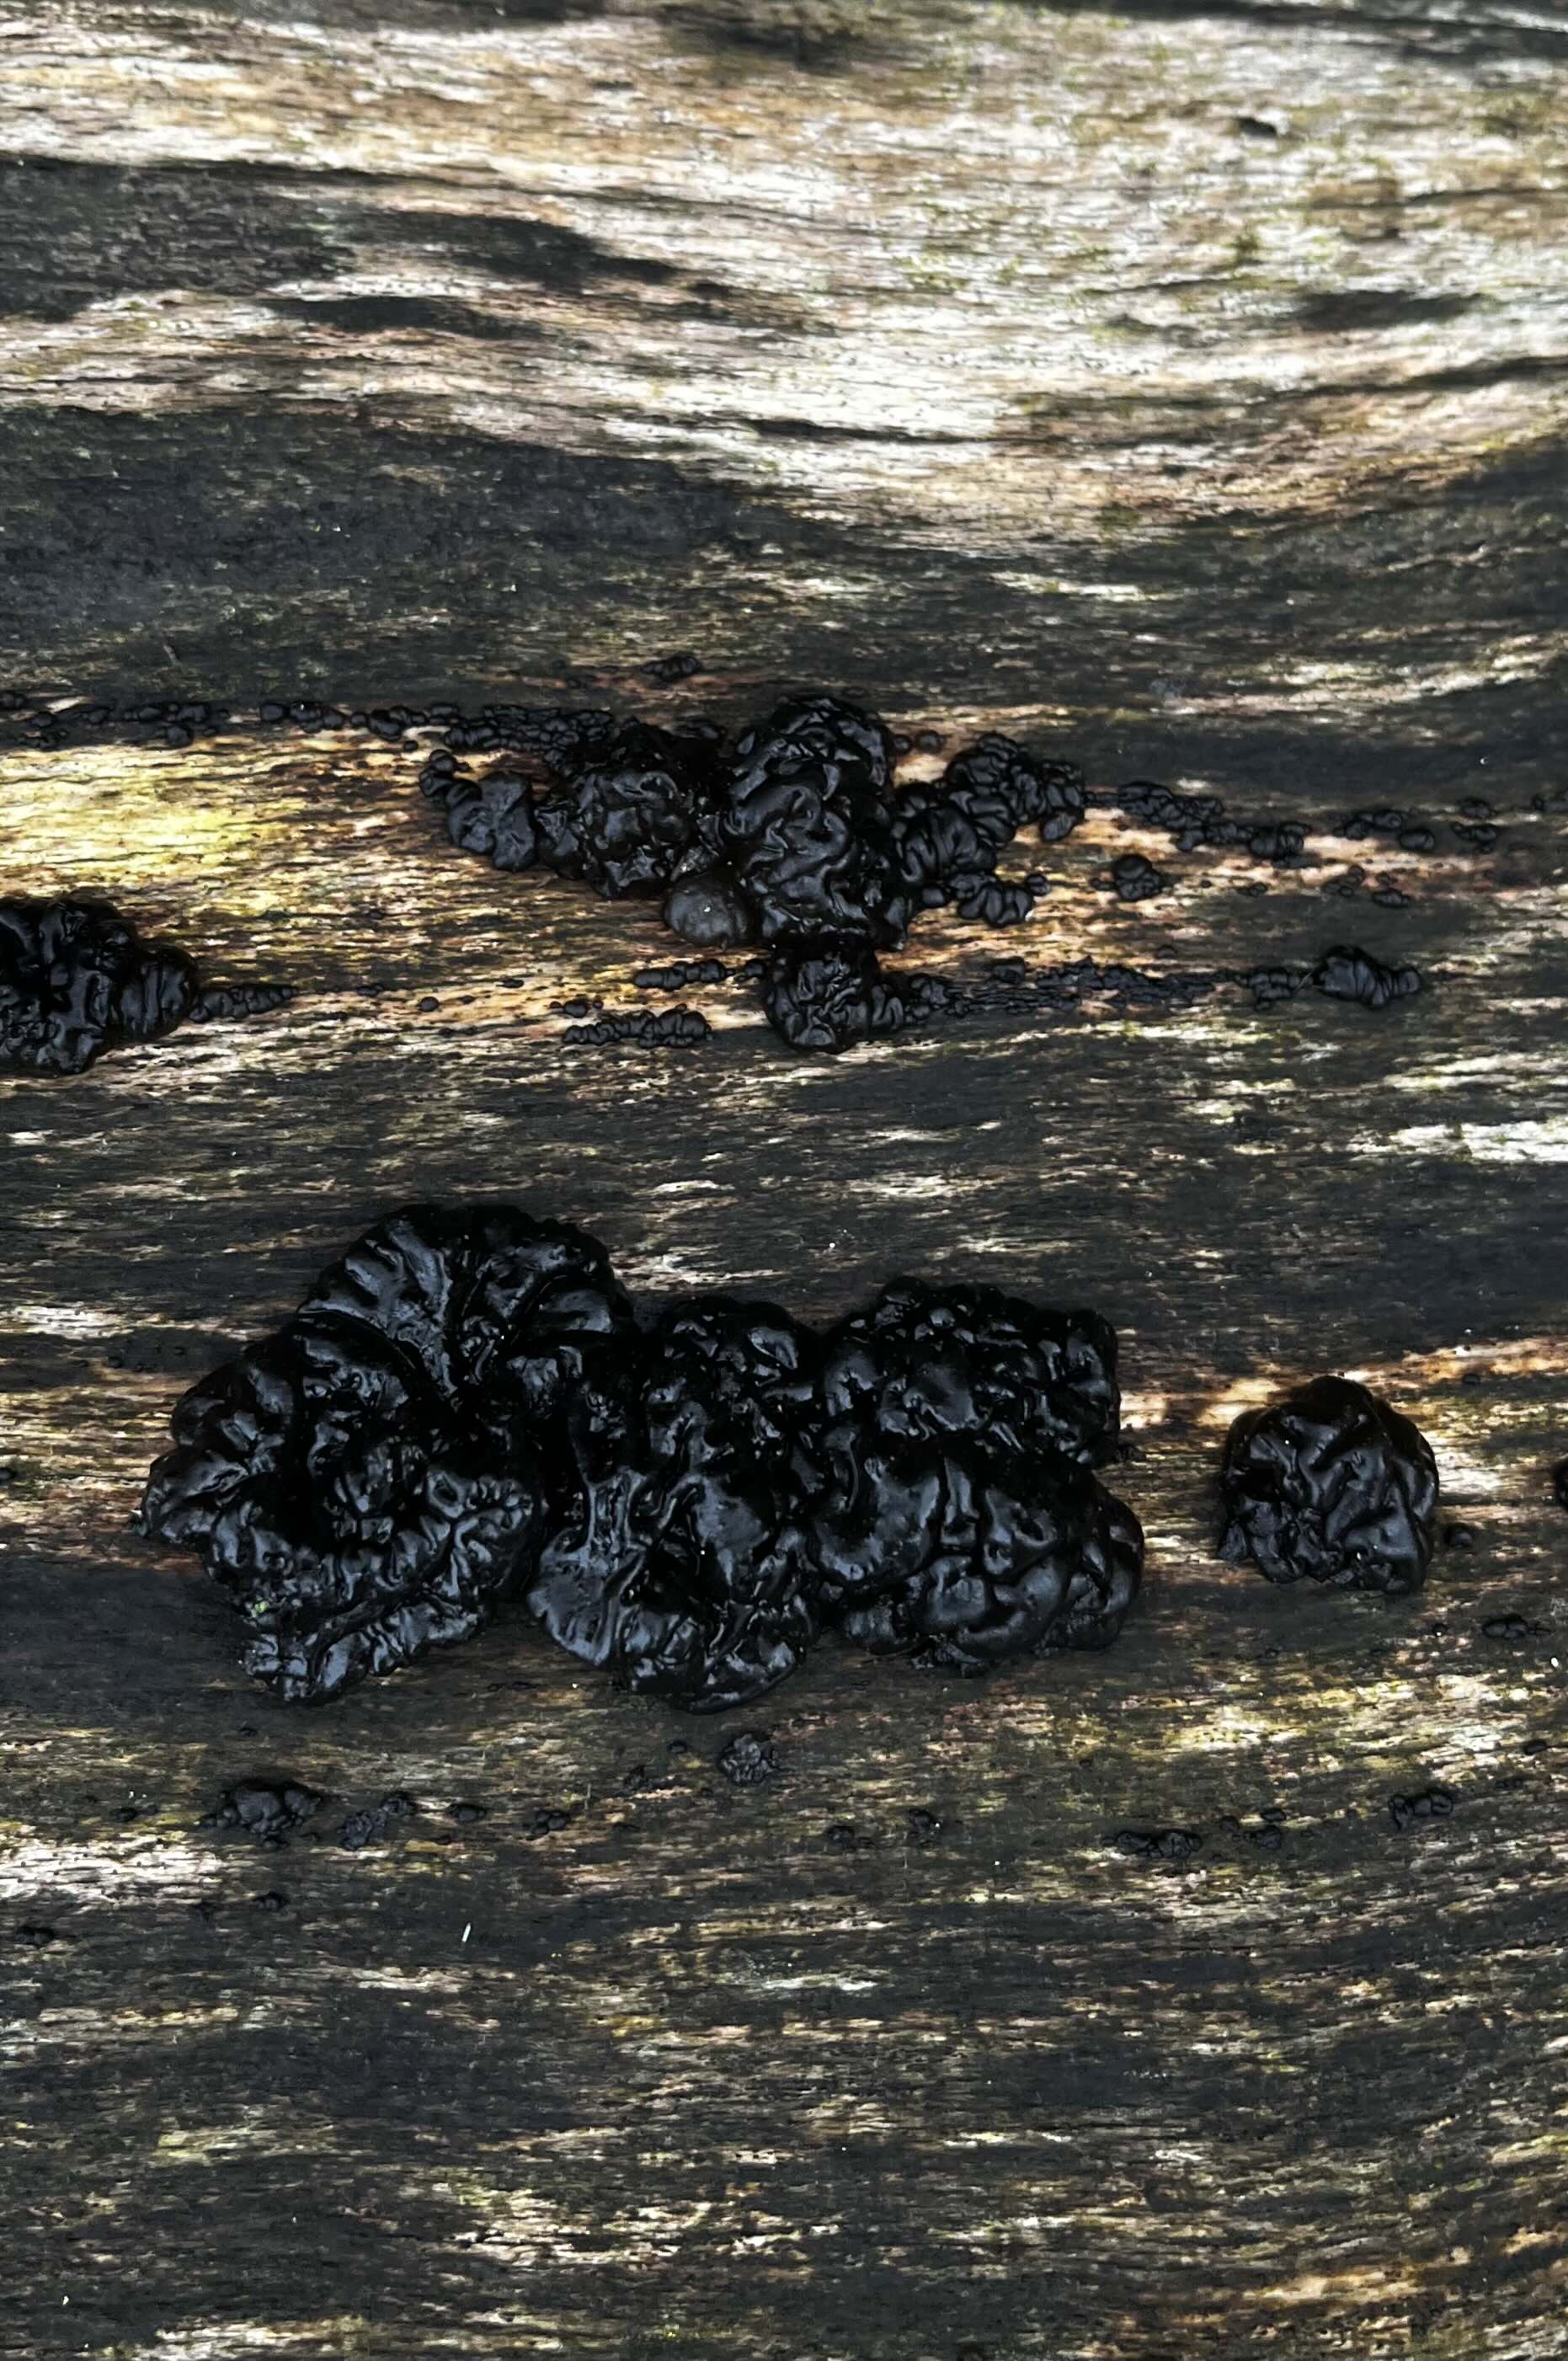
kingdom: Fungi
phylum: Basidiomycota
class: Agaricomycetes
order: Auriculariales
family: Auriculariaceae
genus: Exidia
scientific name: Exidia nigricans
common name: almindelig bævretop
